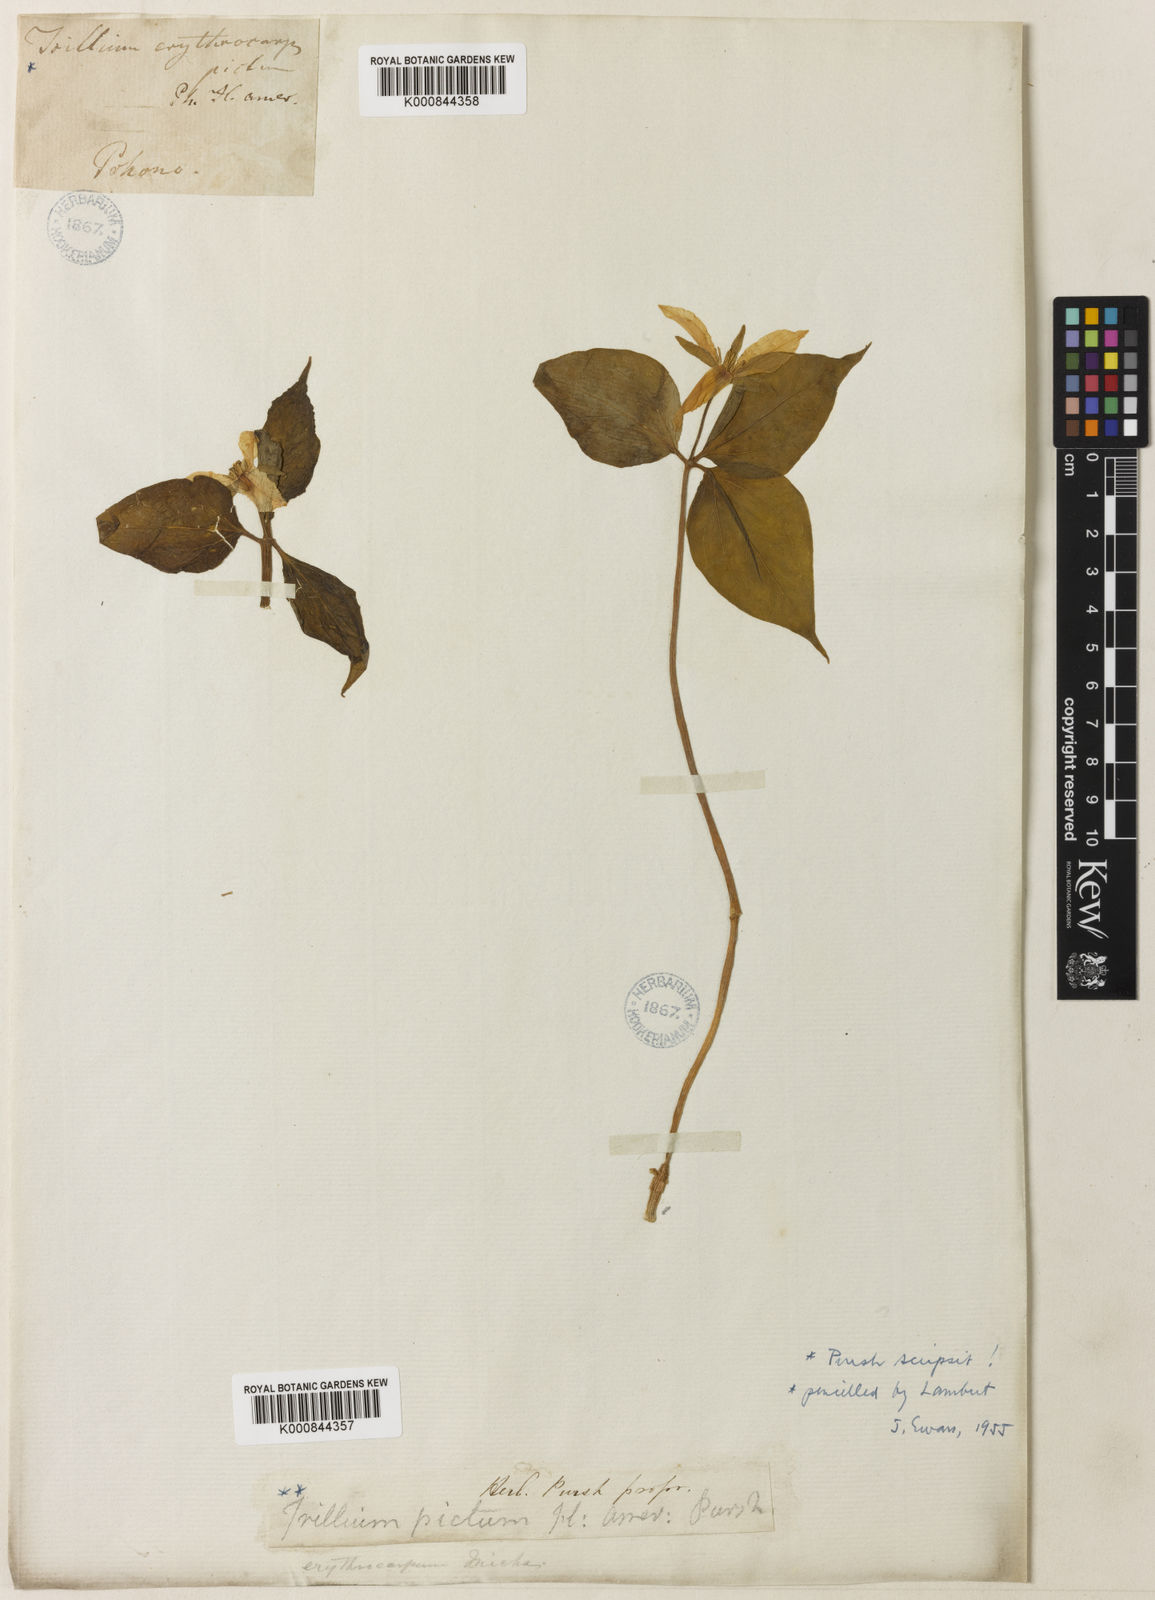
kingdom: Plantae
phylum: Tracheophyta
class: Liliopsida
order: Liliales
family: Melanthiaceae
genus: Trillium
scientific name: Trillium undulatum
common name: Paint trillium
